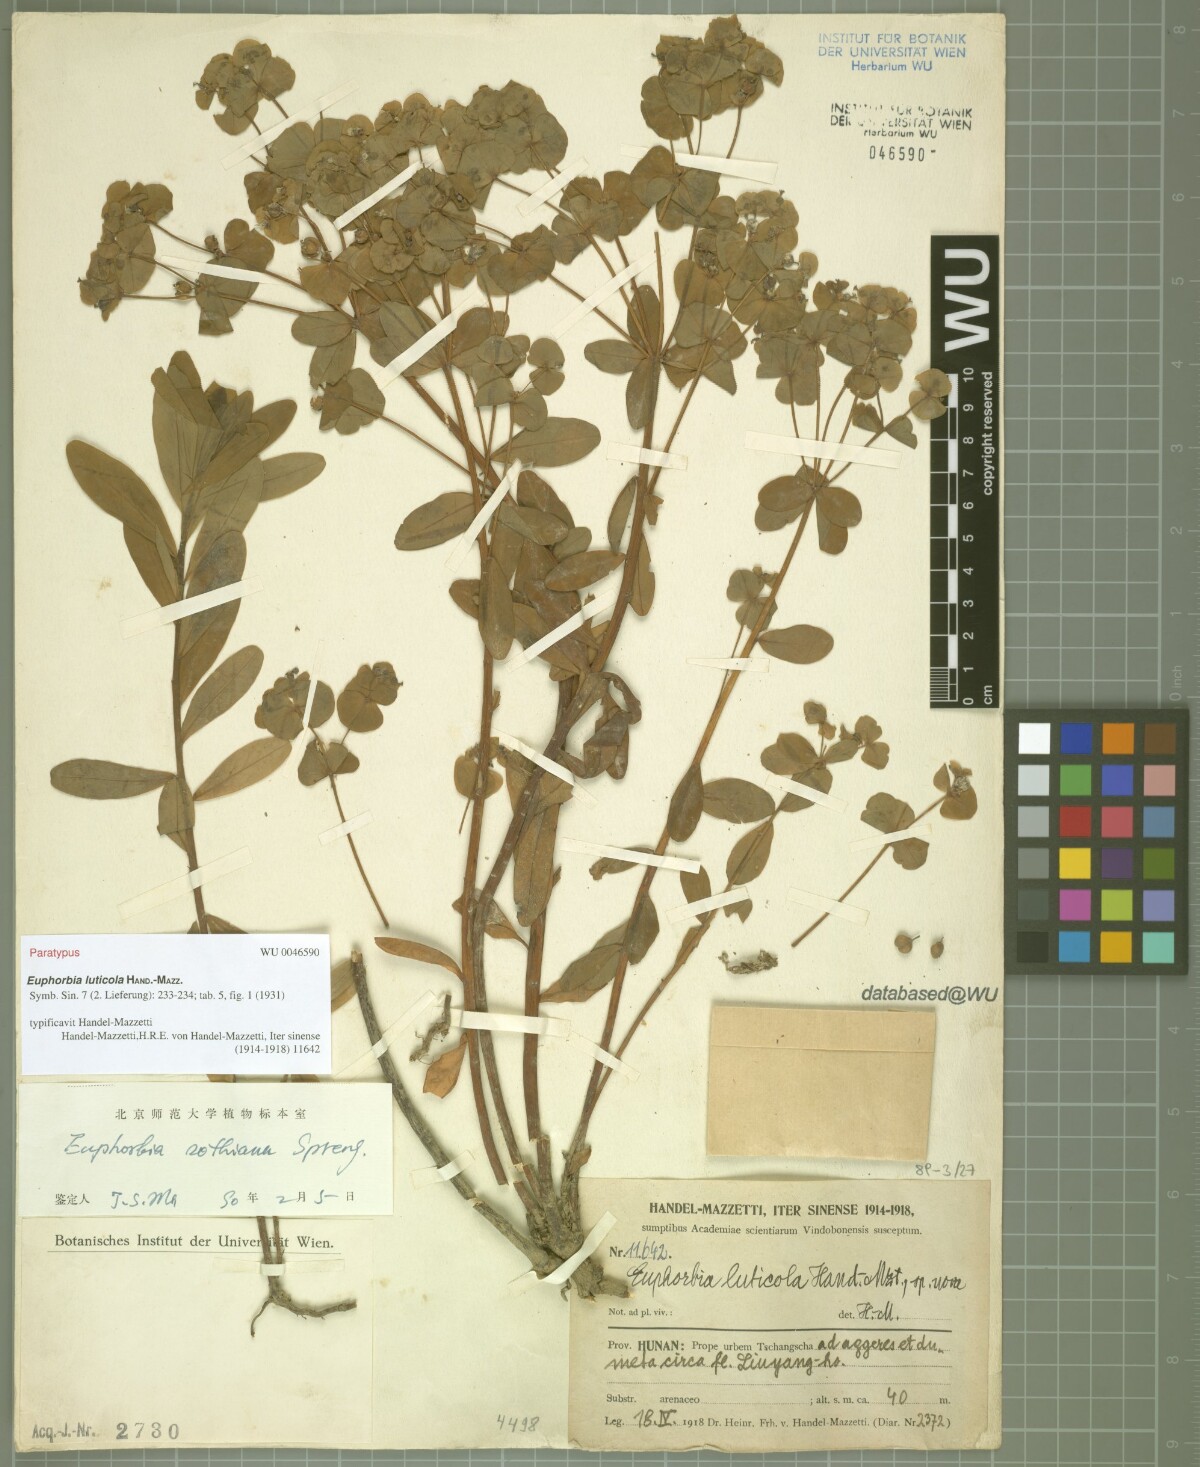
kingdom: Plantae
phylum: Tracheophyta
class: Magnoliopsida
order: Malpighiales
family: Euphorbiaceae
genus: Euphorbia
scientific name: Euphorbia sieboldiana
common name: Siebold's spurge
